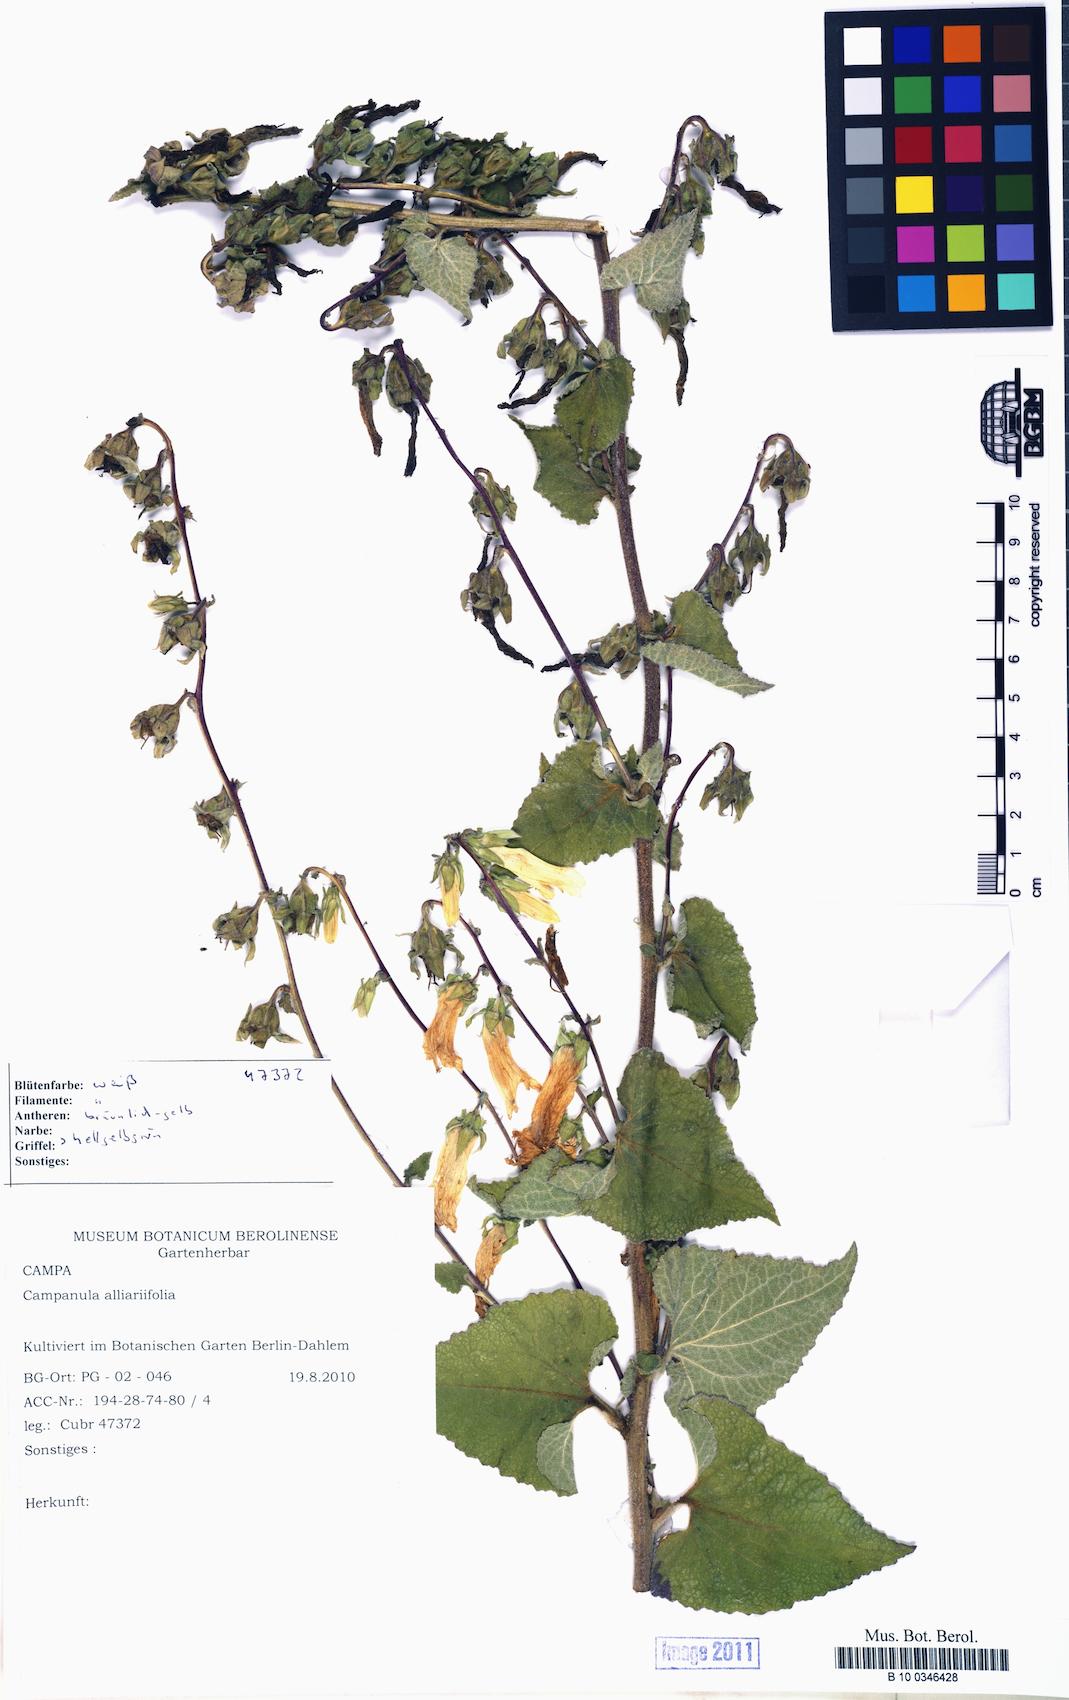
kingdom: Plantae
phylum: Tracheophyta
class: Magnoliopsida
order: Asterales
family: Campanulaceae
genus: Campanula
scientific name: Campanula alliariifolia
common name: Cornish bellflower
